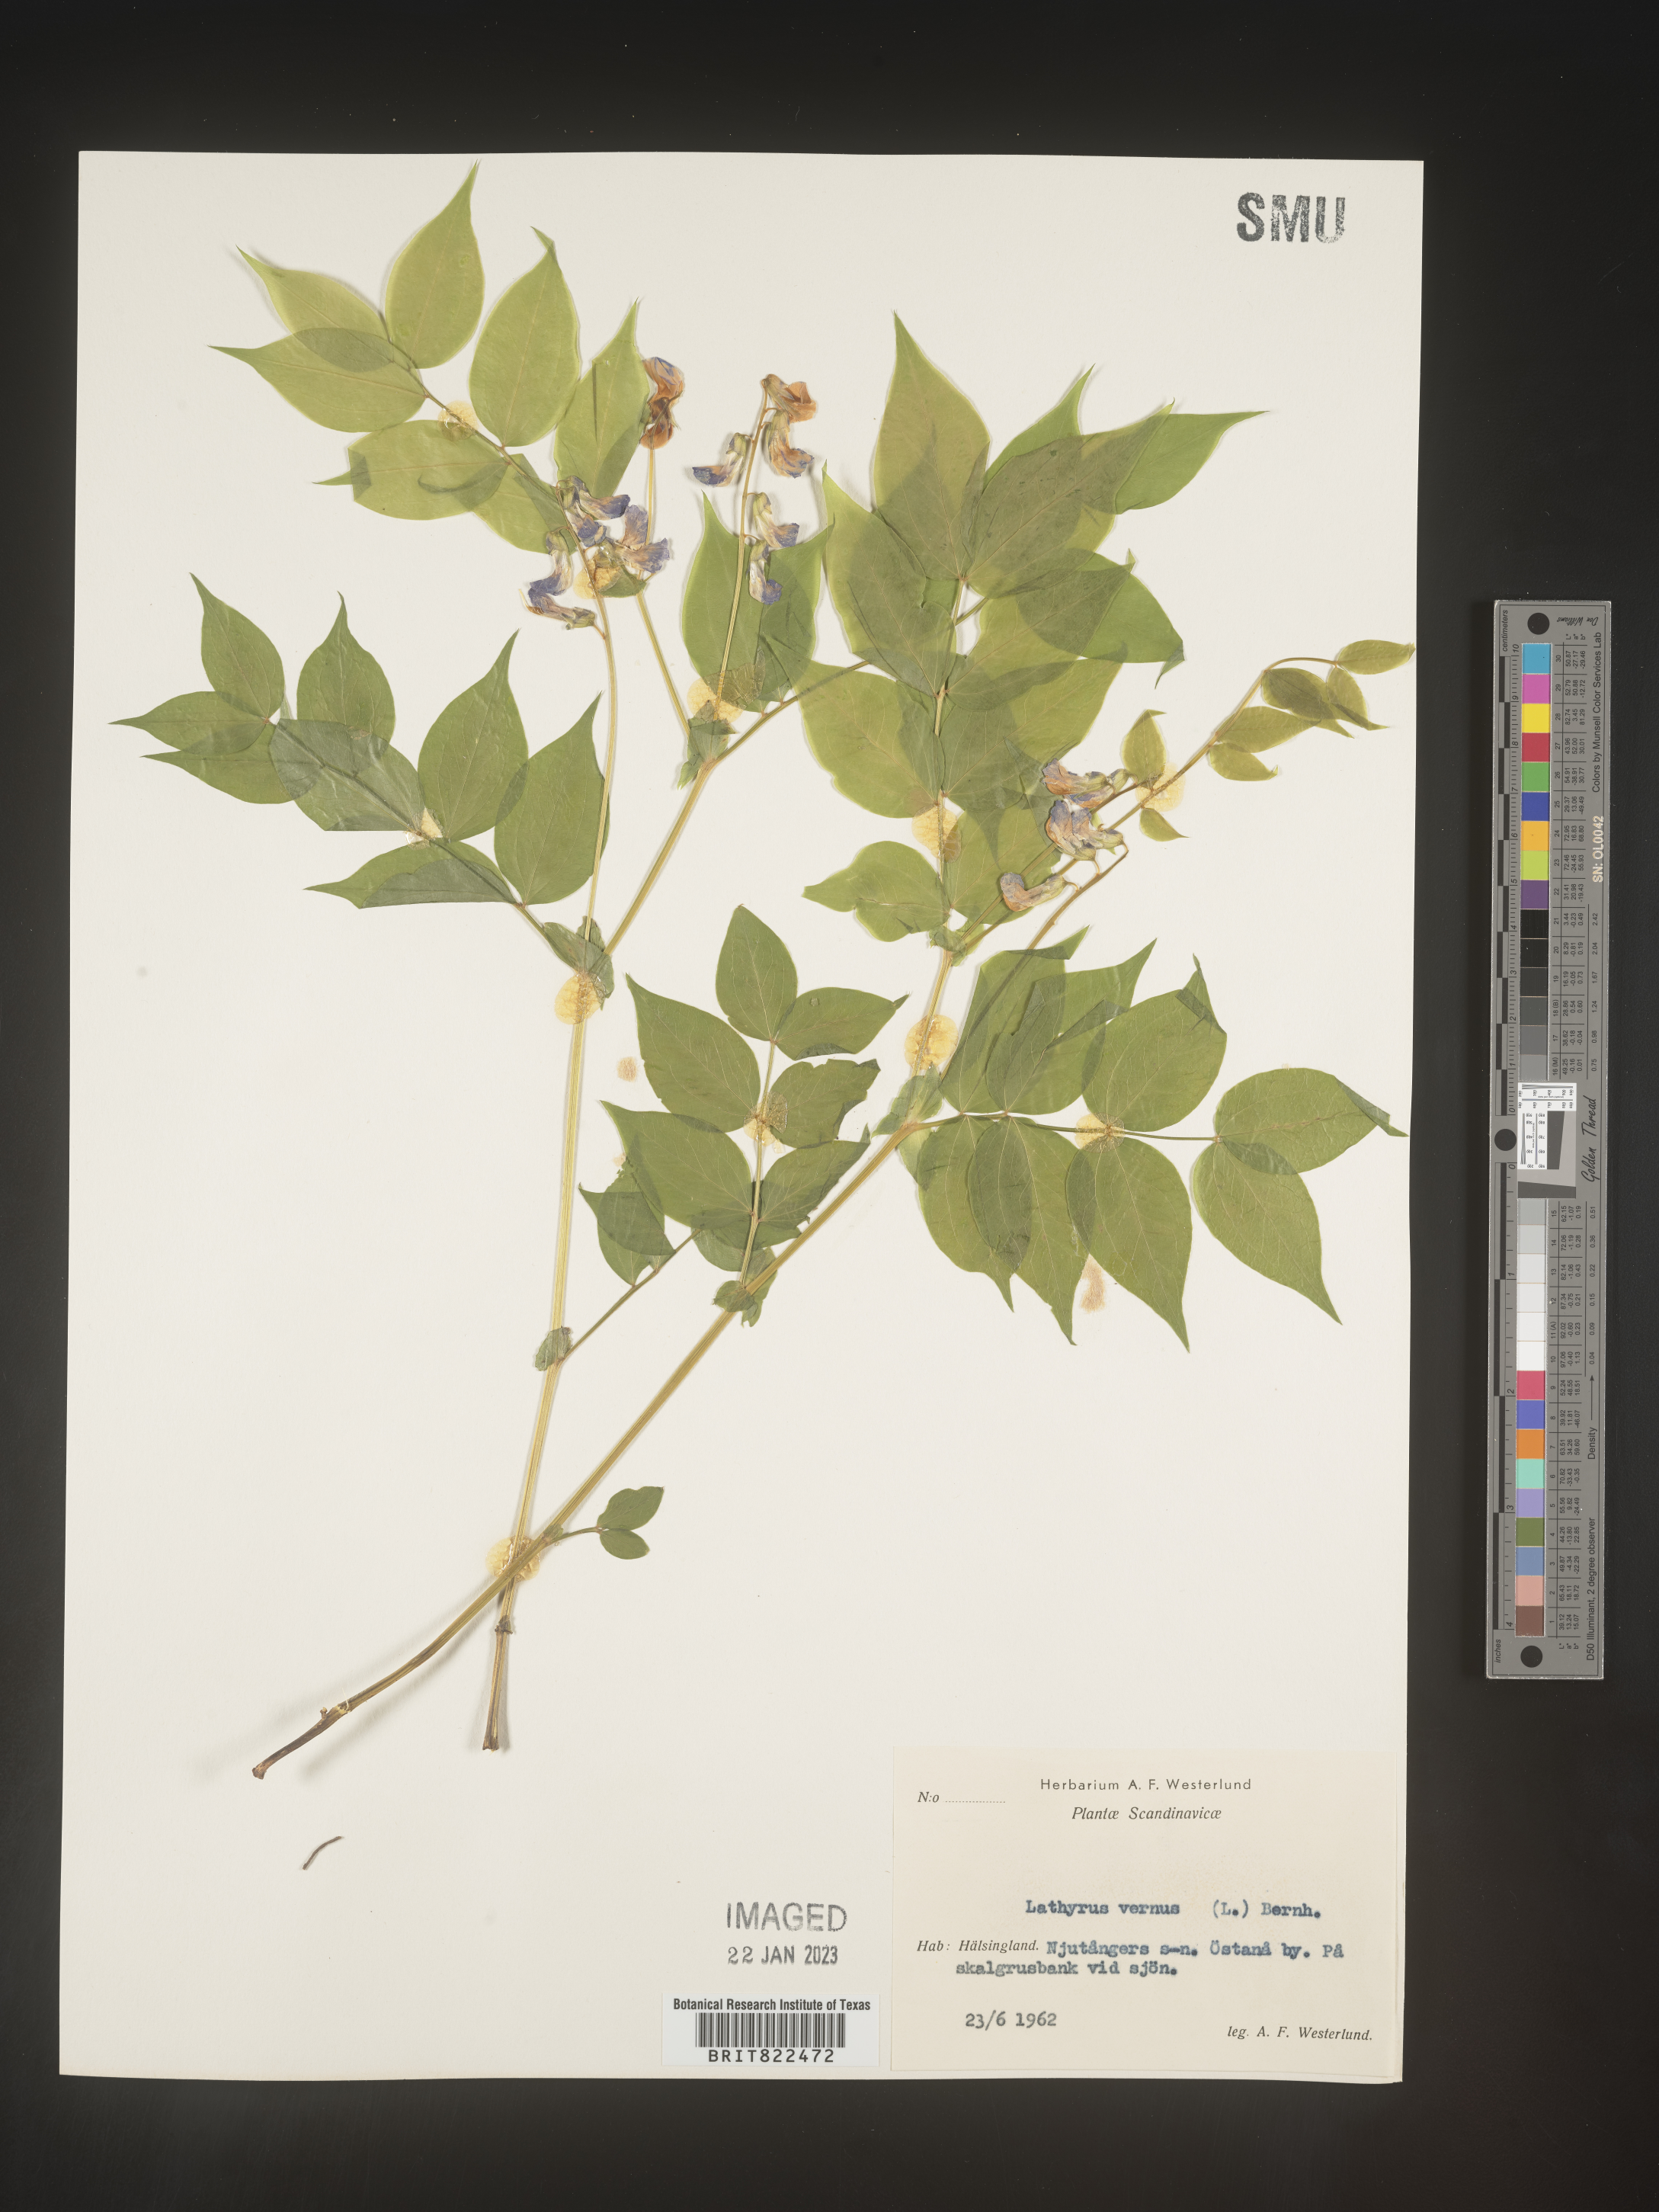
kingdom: Plantae
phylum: Tracheophyta
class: Magnoliopsida
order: Fabales
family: Fabaceae
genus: Lathyrus
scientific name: Lathyrus
